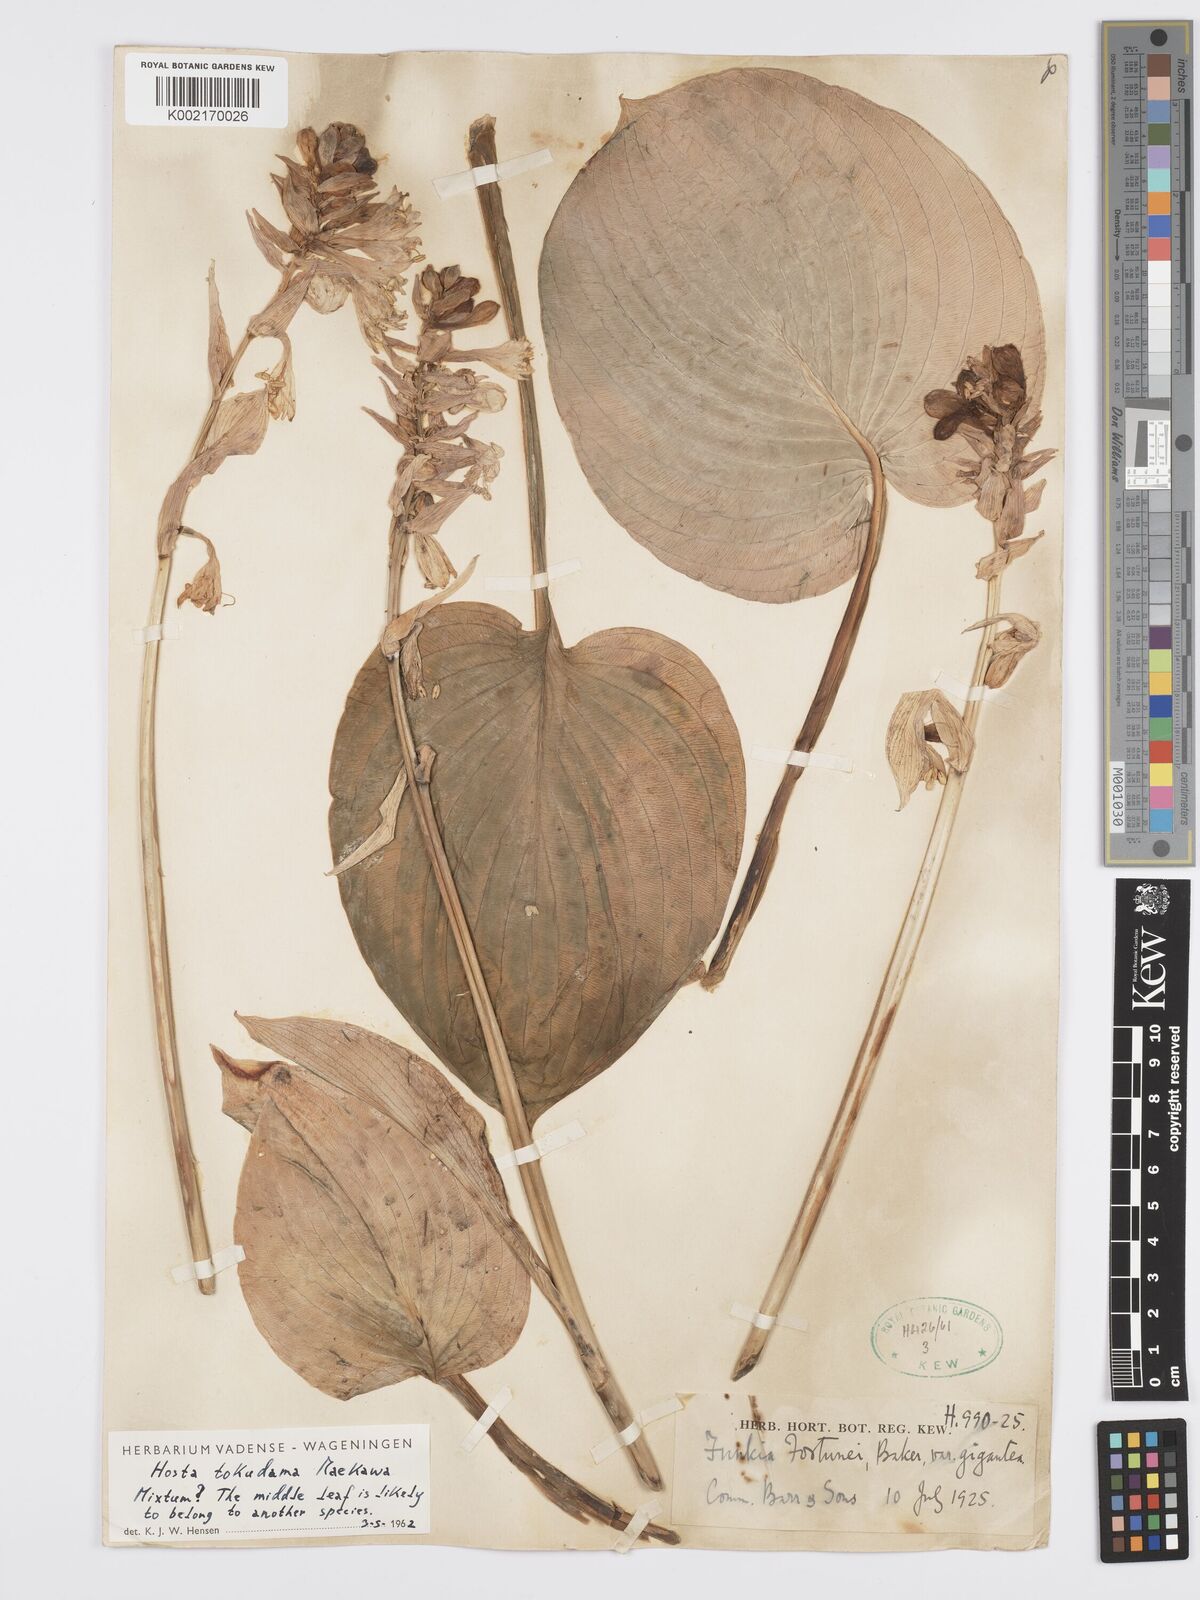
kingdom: Plantae
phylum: Tracheophyta
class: Liliopsida
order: Asparagales
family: Asparagaceae
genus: Hosta
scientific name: Hosta sieboldiana
